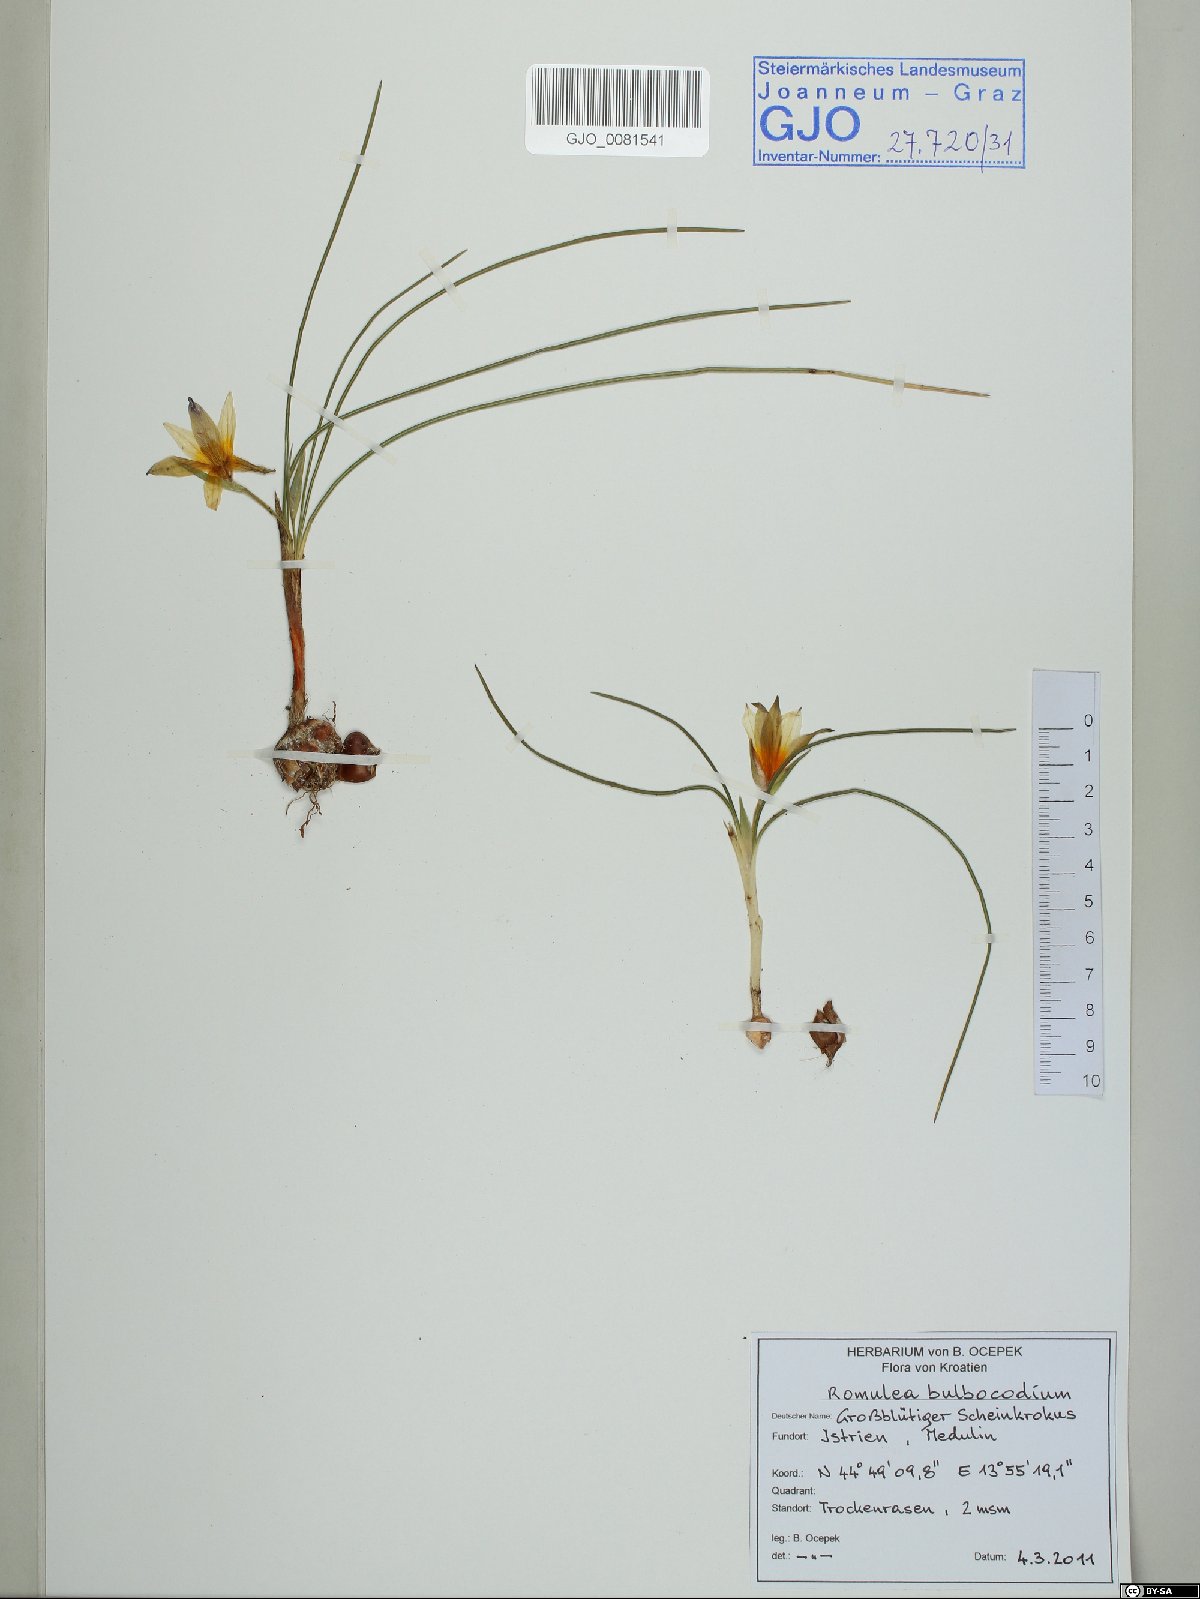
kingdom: Plantae
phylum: Tracheophyta
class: Liliopsida
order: Asparagales
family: Iridaceae
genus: Romulea
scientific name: Romulea bulbocodium
